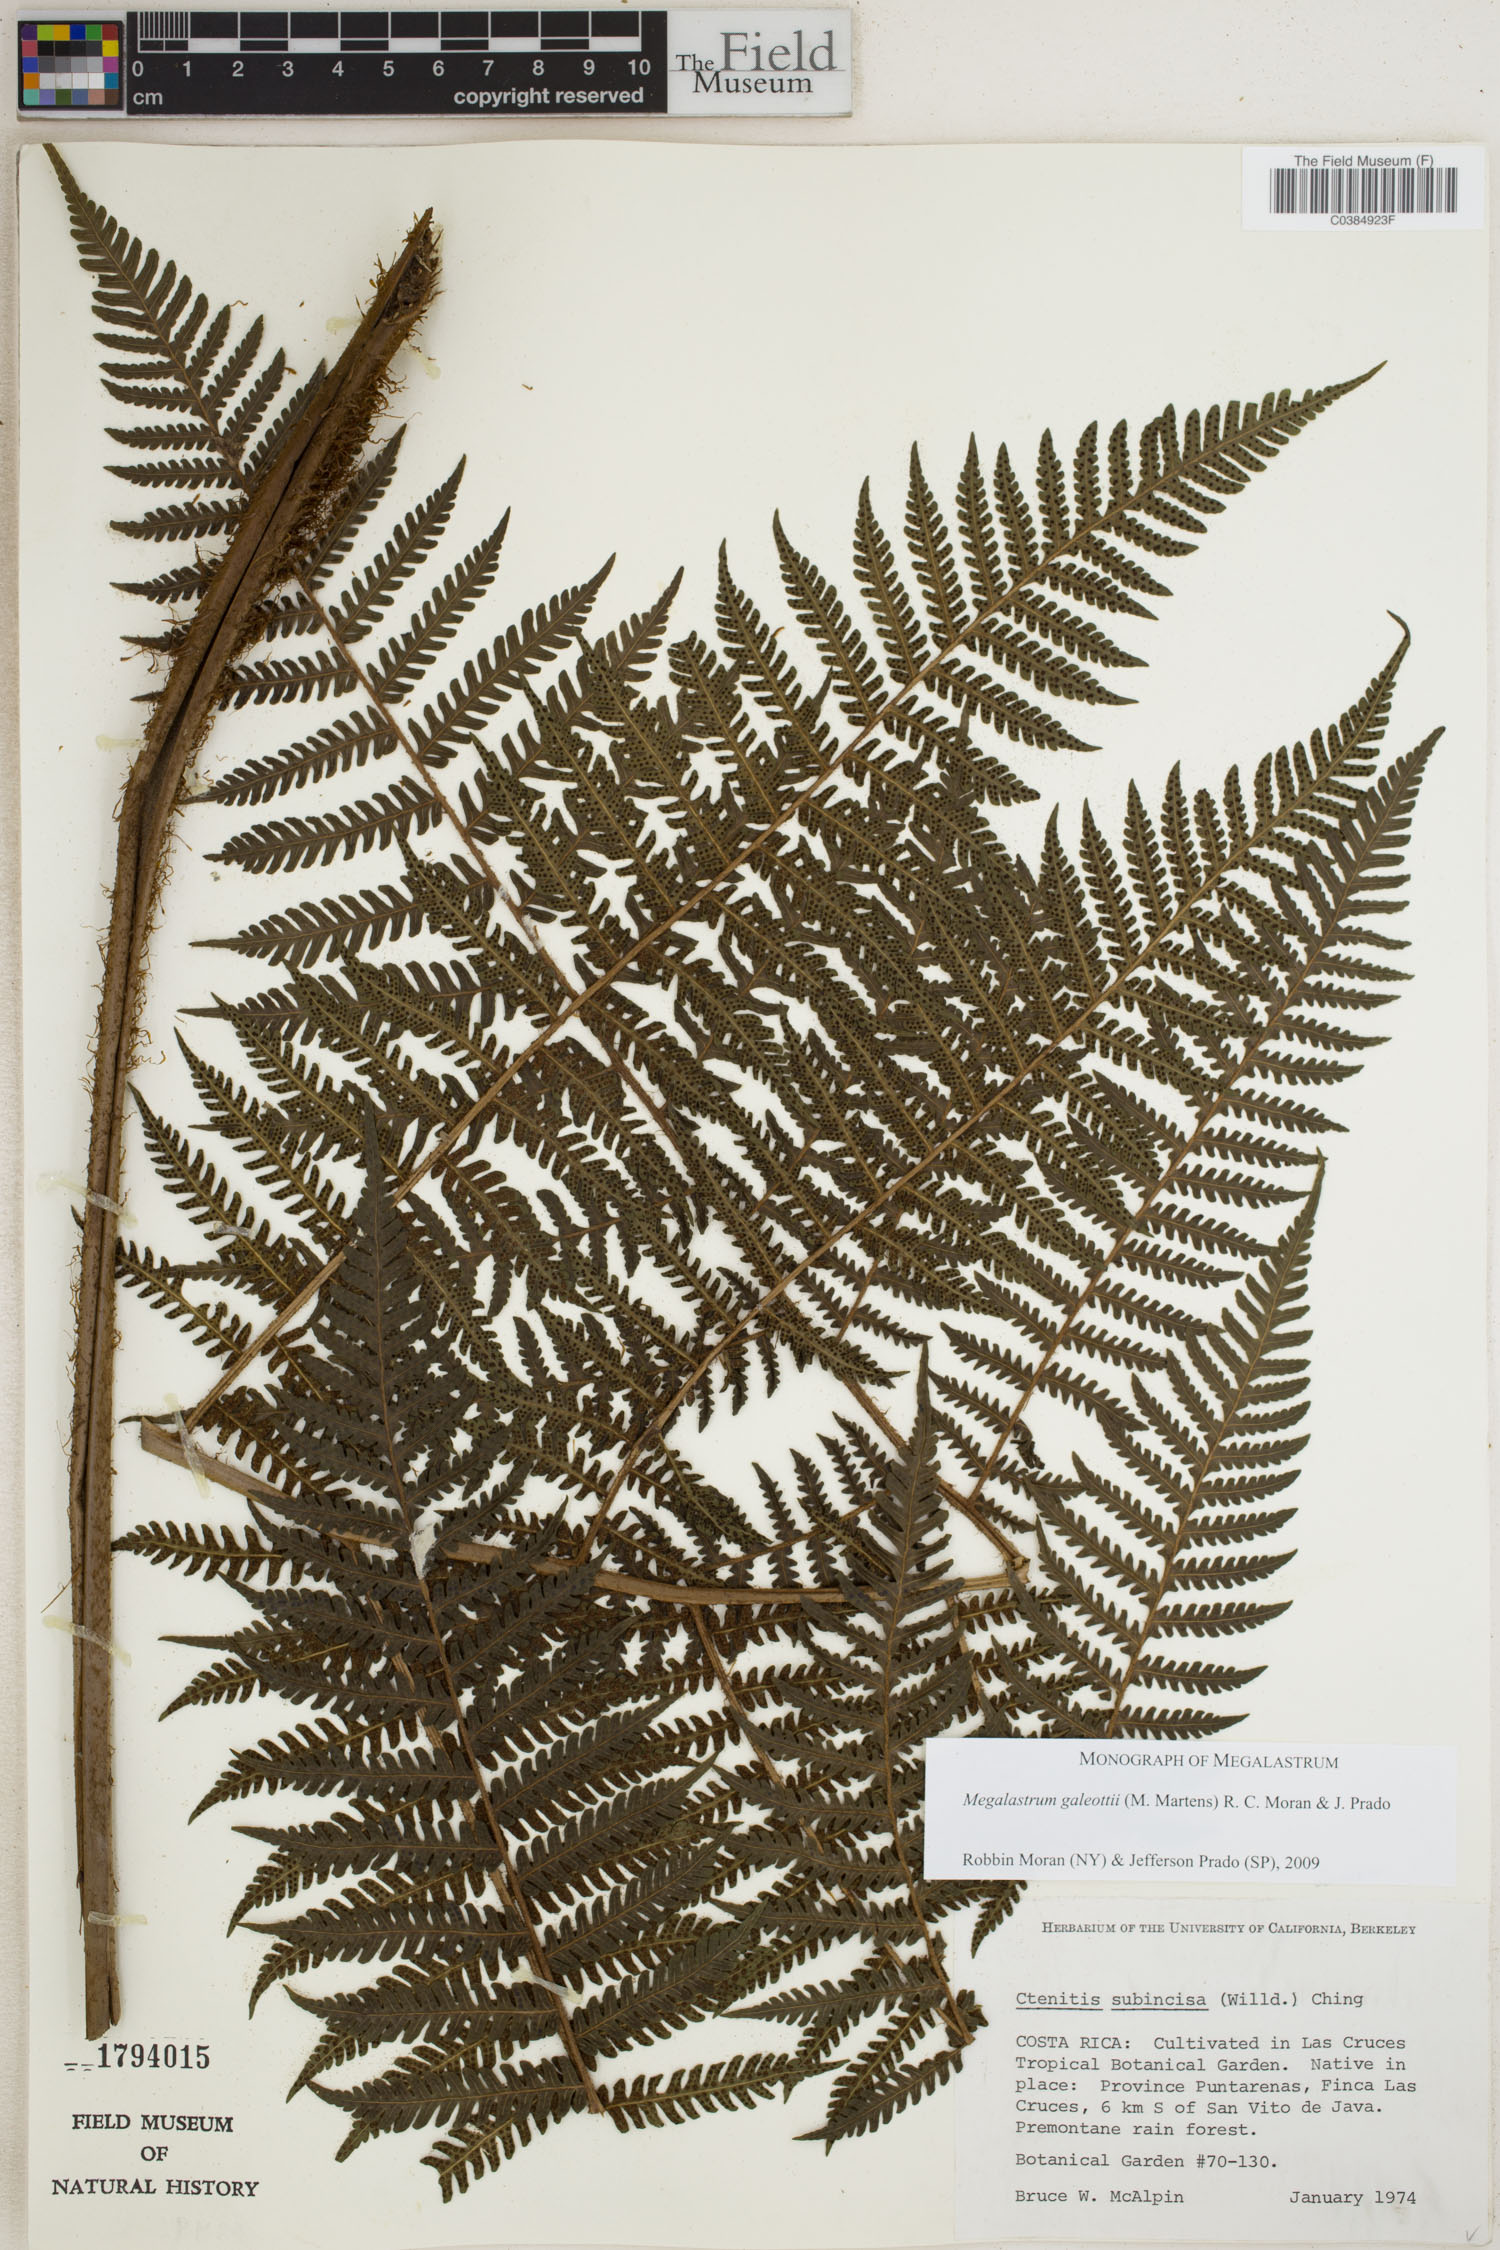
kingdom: Plantae
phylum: Tracheophyta
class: Polypodiopsida
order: Polypodiales
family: Dryopteridaceae
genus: Megalastrum
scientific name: Megalastrum galeottii
